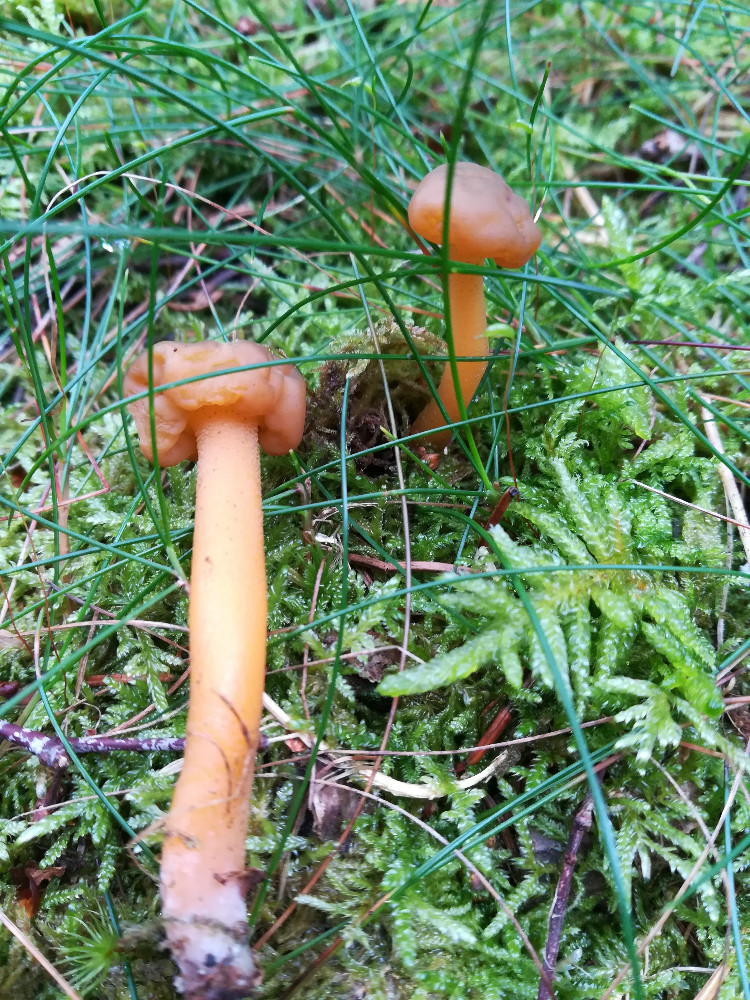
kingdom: Fungi
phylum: Ascomycota
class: Leotiomycetes
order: Leotiales
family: Leotiaceae
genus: Leotia
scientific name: Leotia lubrica
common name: ravsvamp
